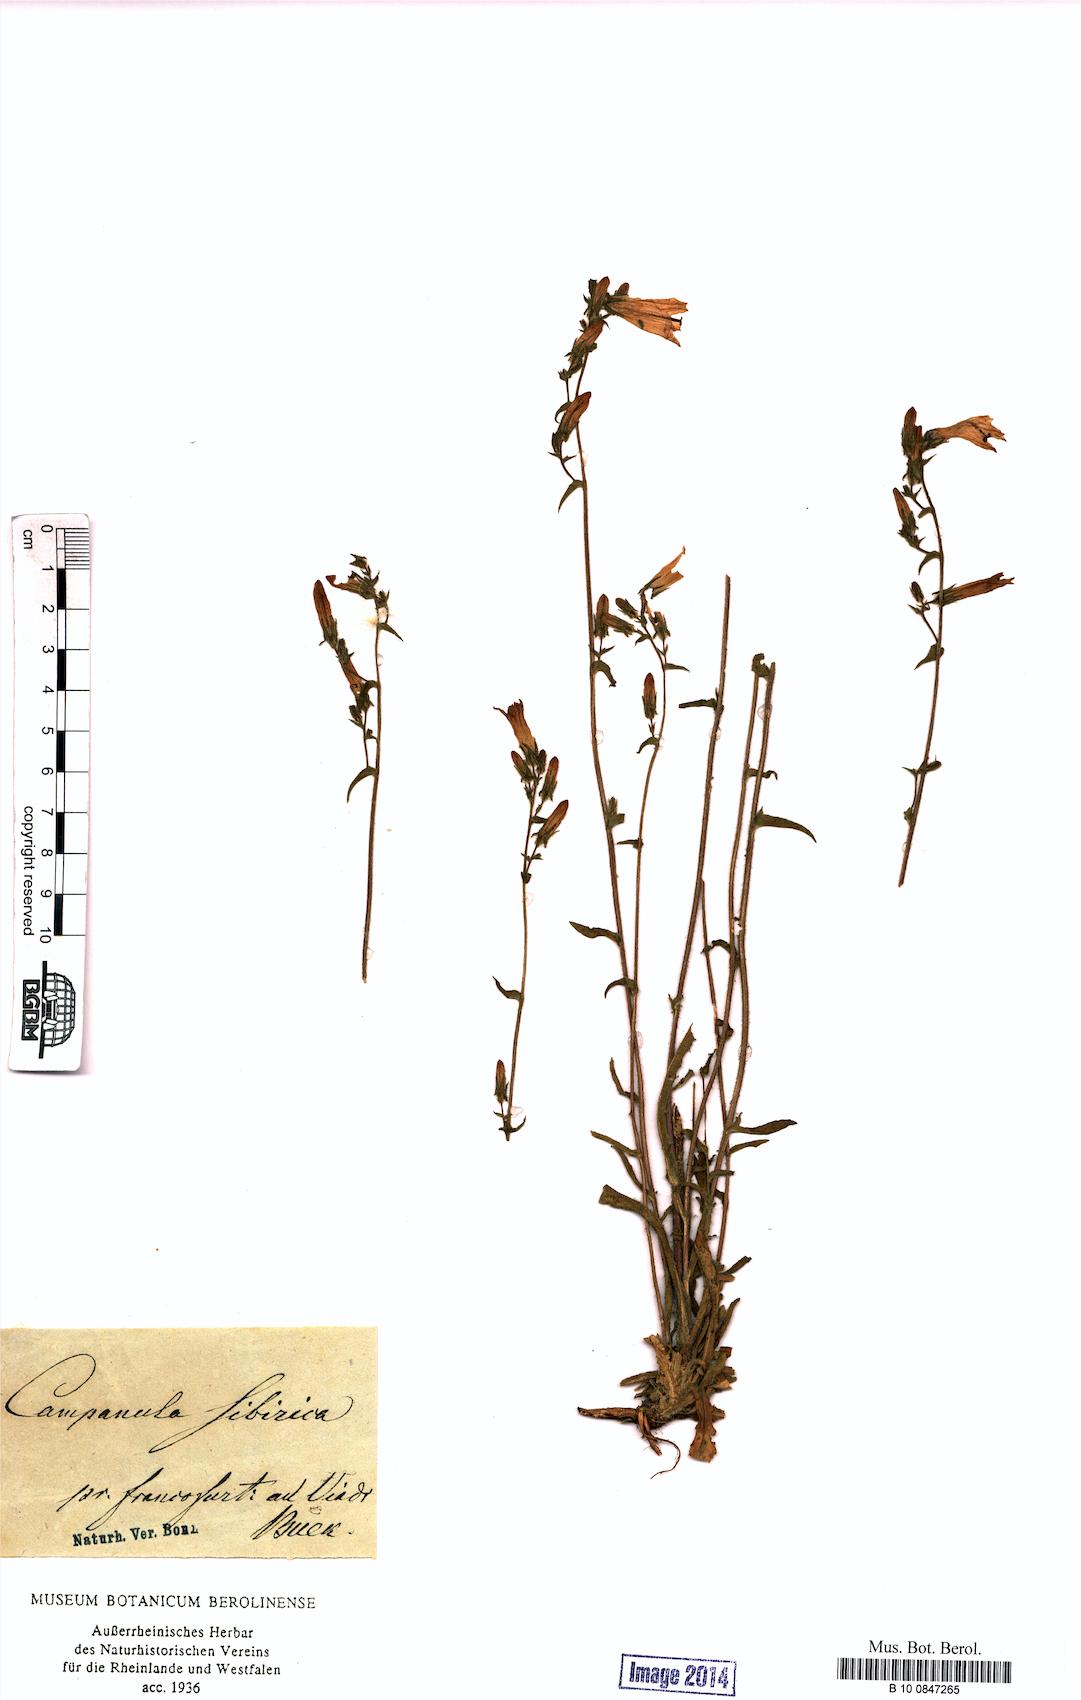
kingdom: Plantae
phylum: Tracheophyta
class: Magnoliopsida
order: Asterales
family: Campanulaceae
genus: Campanula
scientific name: Campanula sibirica
